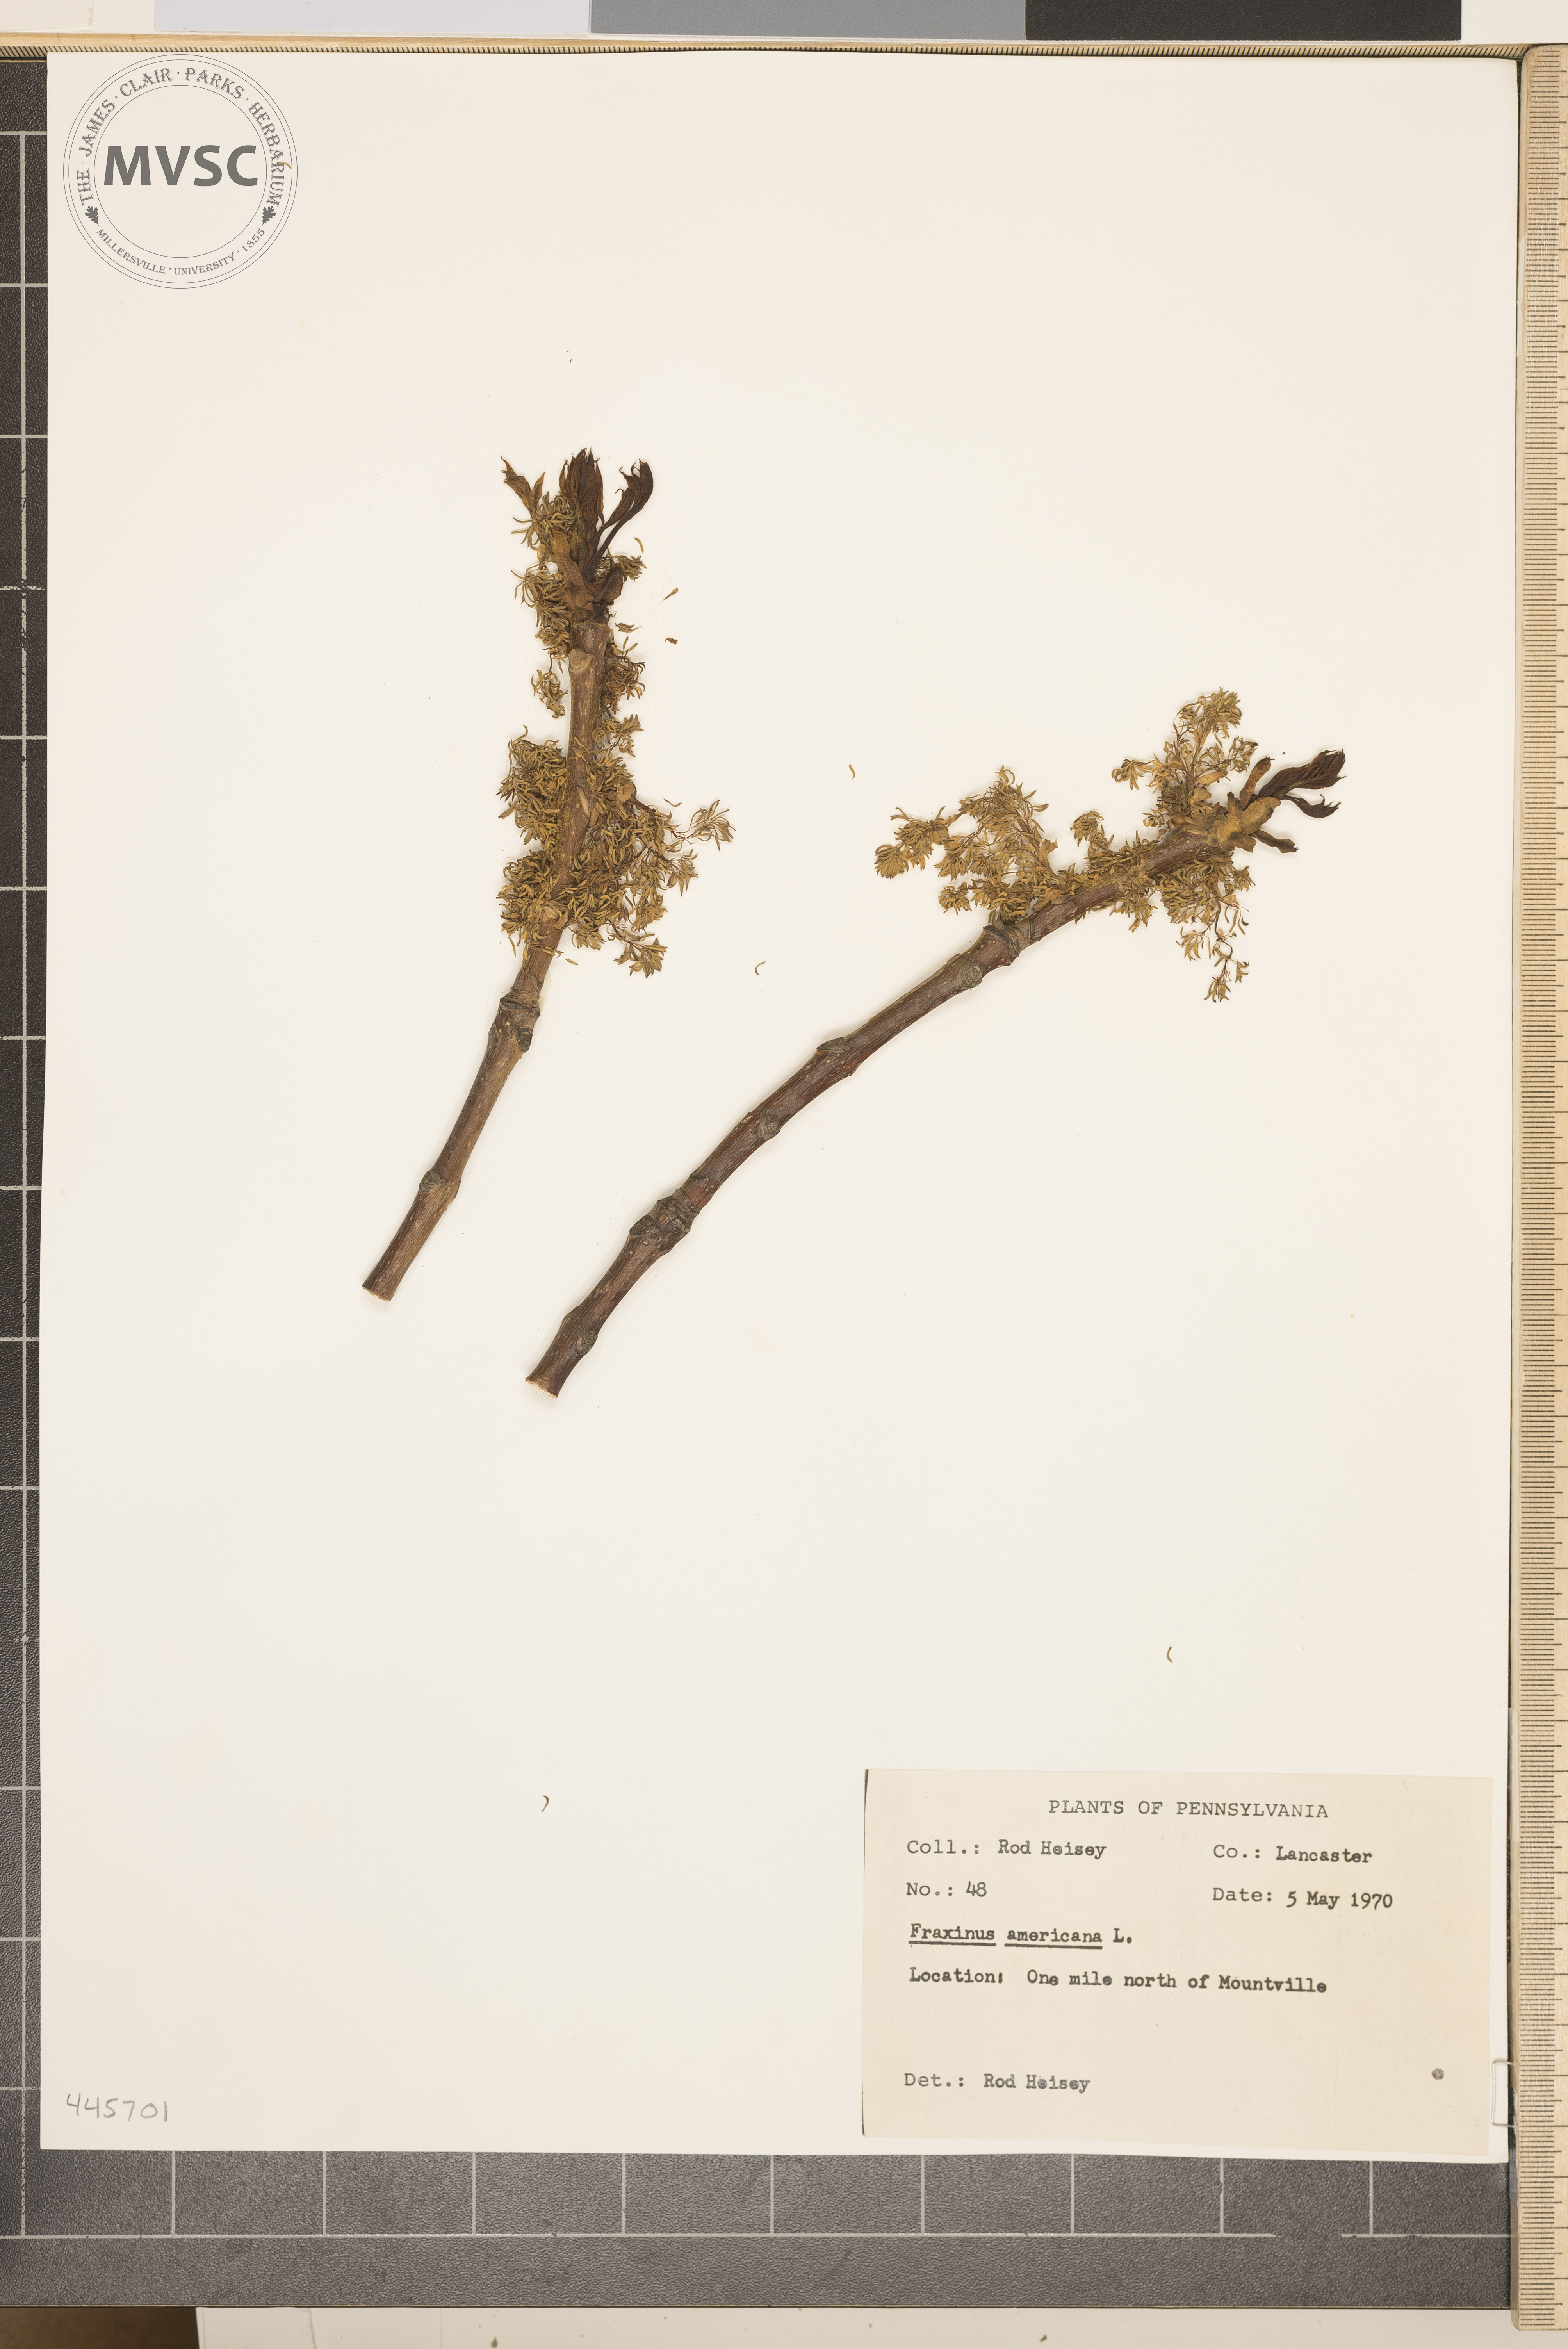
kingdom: Plantae
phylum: Tracheophyta
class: Magnoliopsida
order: Lamiales
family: Oleaceae
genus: Fraxinus
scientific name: Fraxinus americana
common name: White ash
